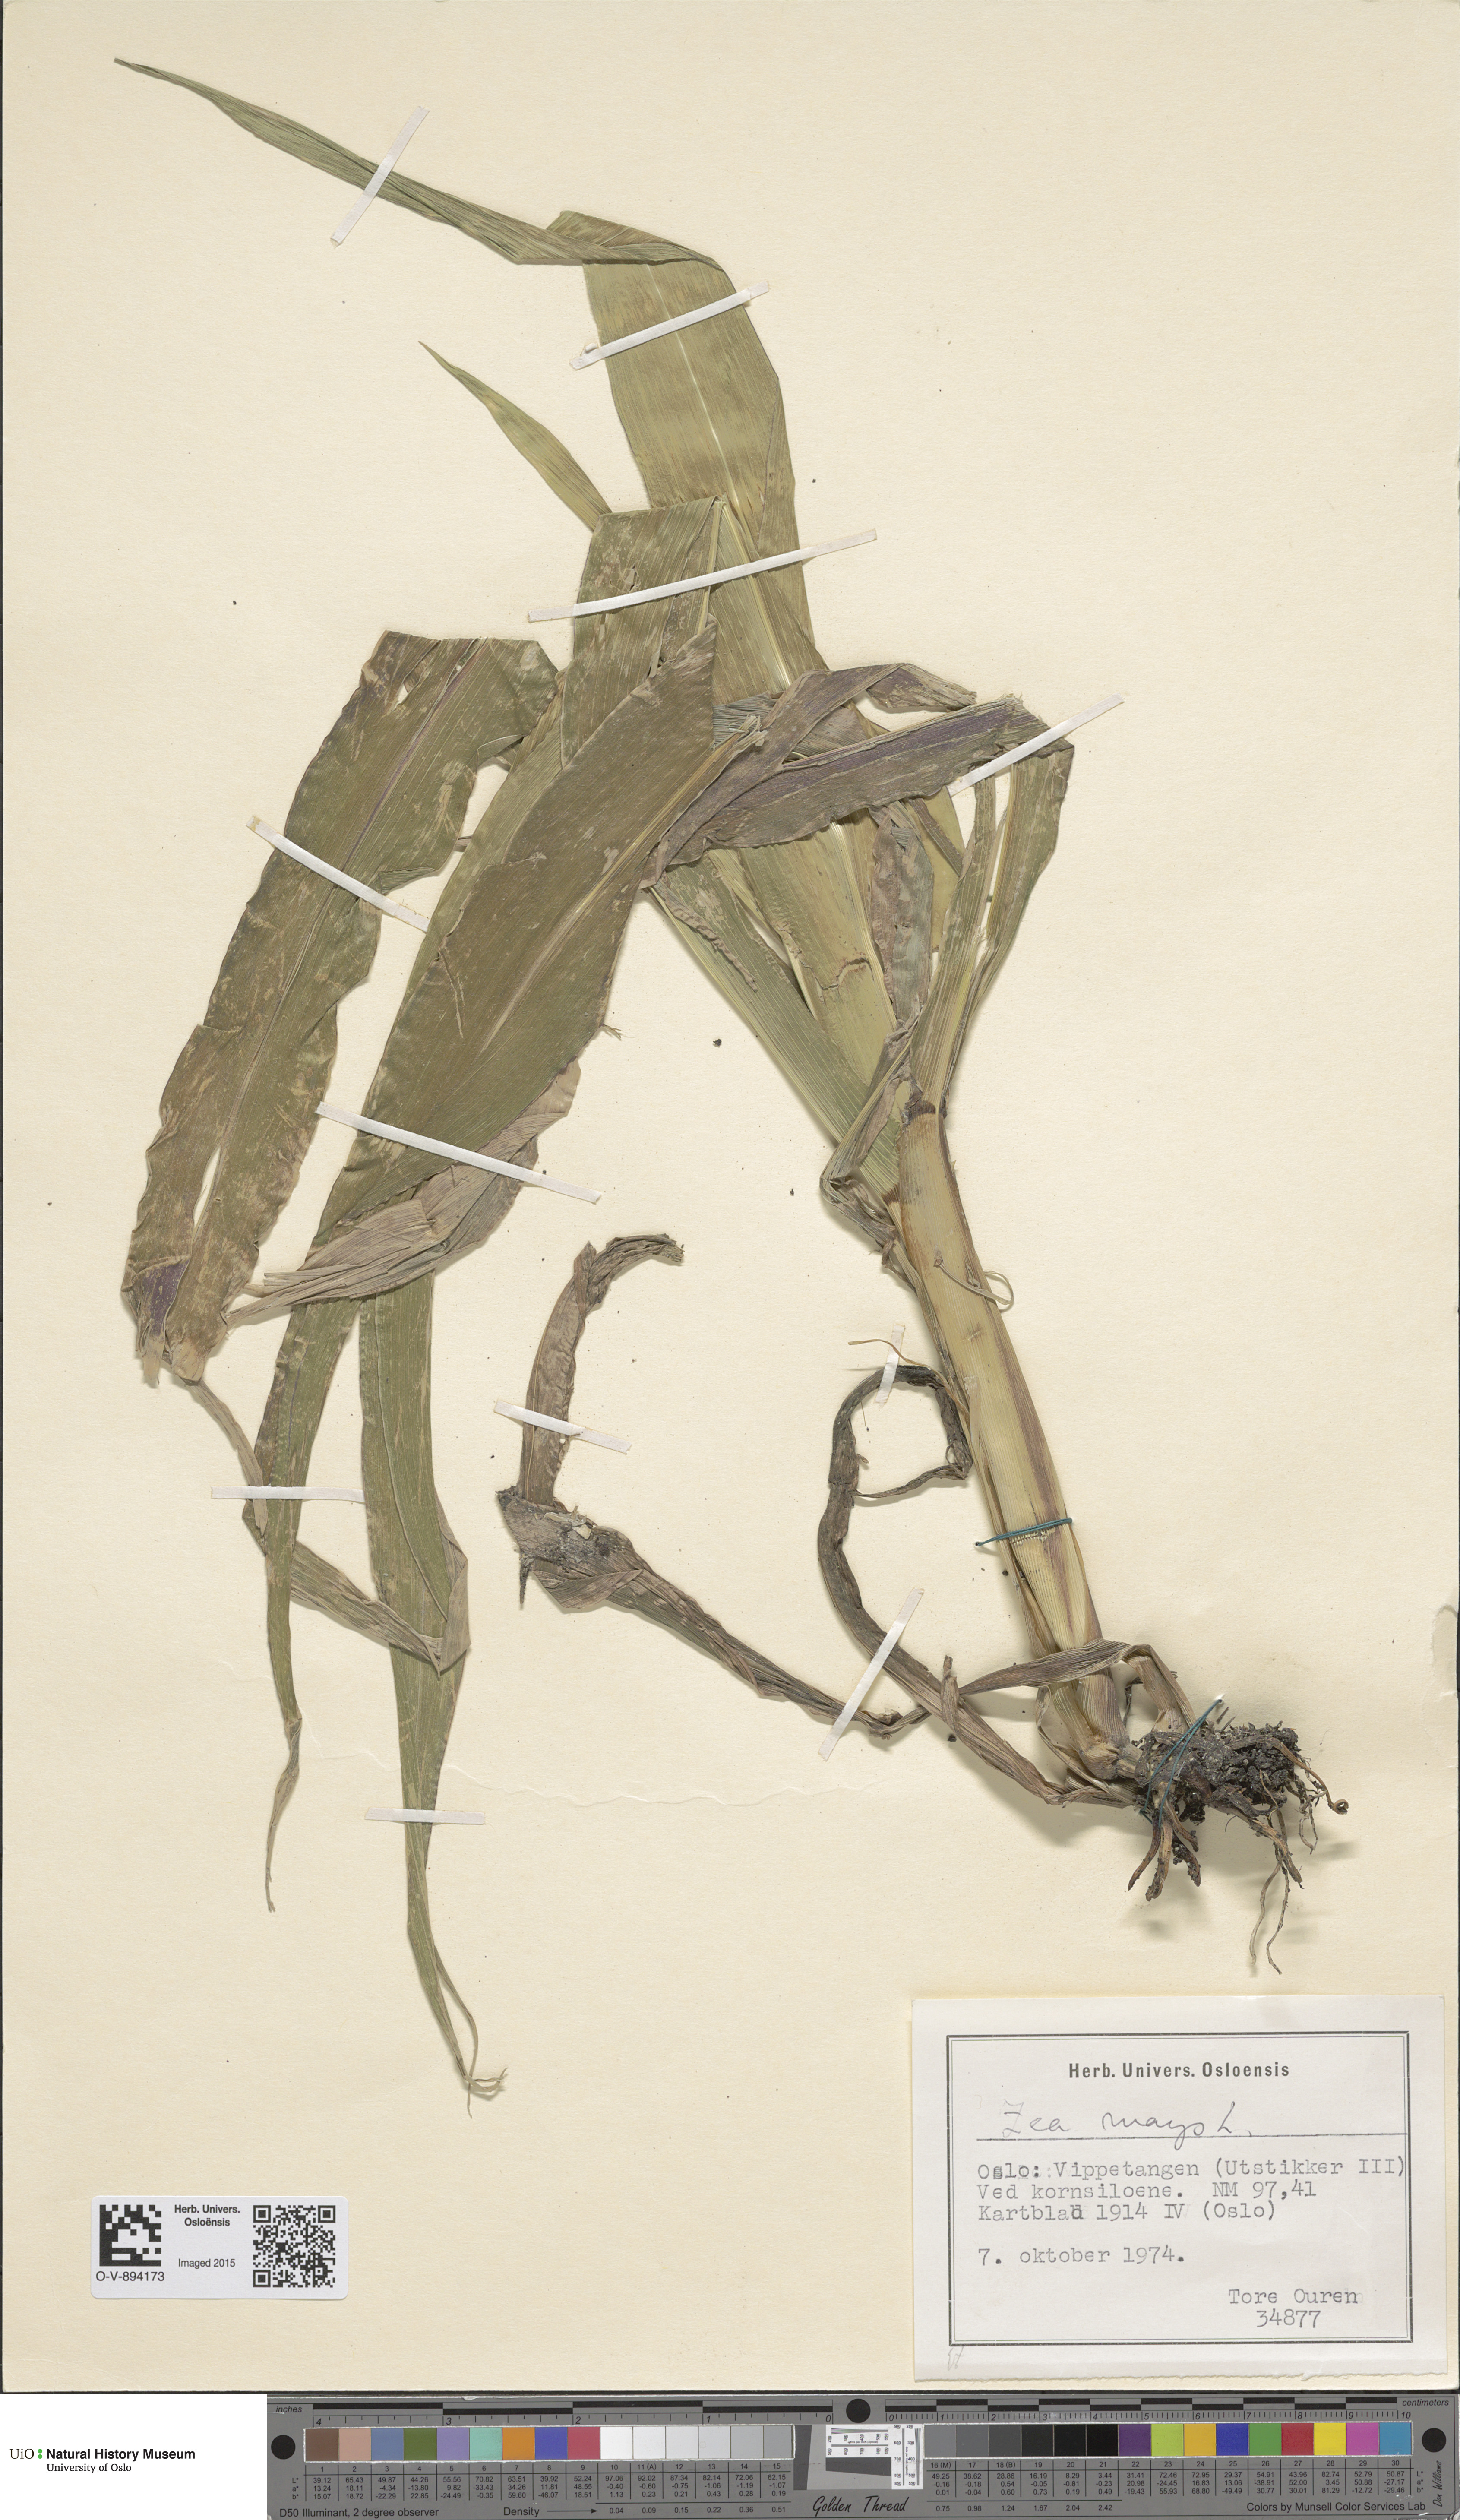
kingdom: Plantae
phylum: Tracheophyta
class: Liliopsida
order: Poales
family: Poaceae
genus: Zea
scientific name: Zea mays
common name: Maize
